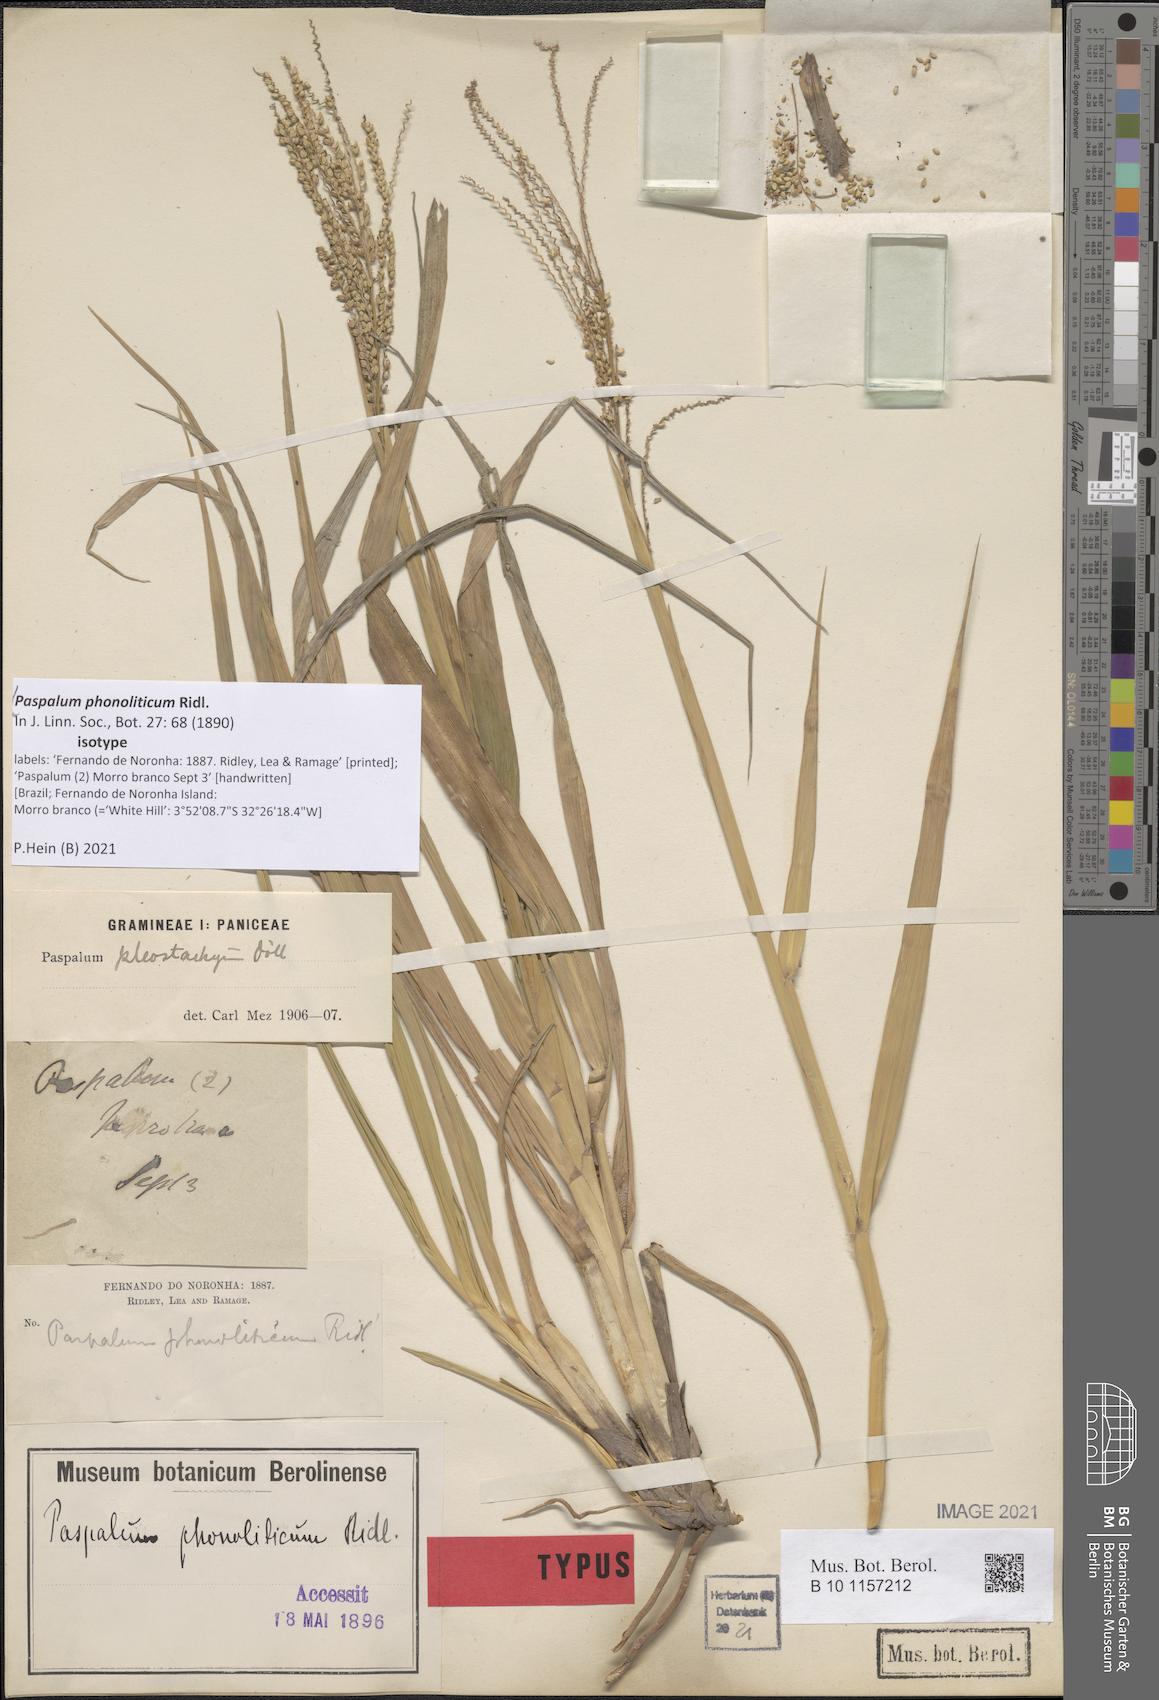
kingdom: Plantae
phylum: Tracheophyta
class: Liliopsida
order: Poales
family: Poaceae
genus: Paspalum
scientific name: Paspalum arundinaceum
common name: Thick ditch crowngrass
